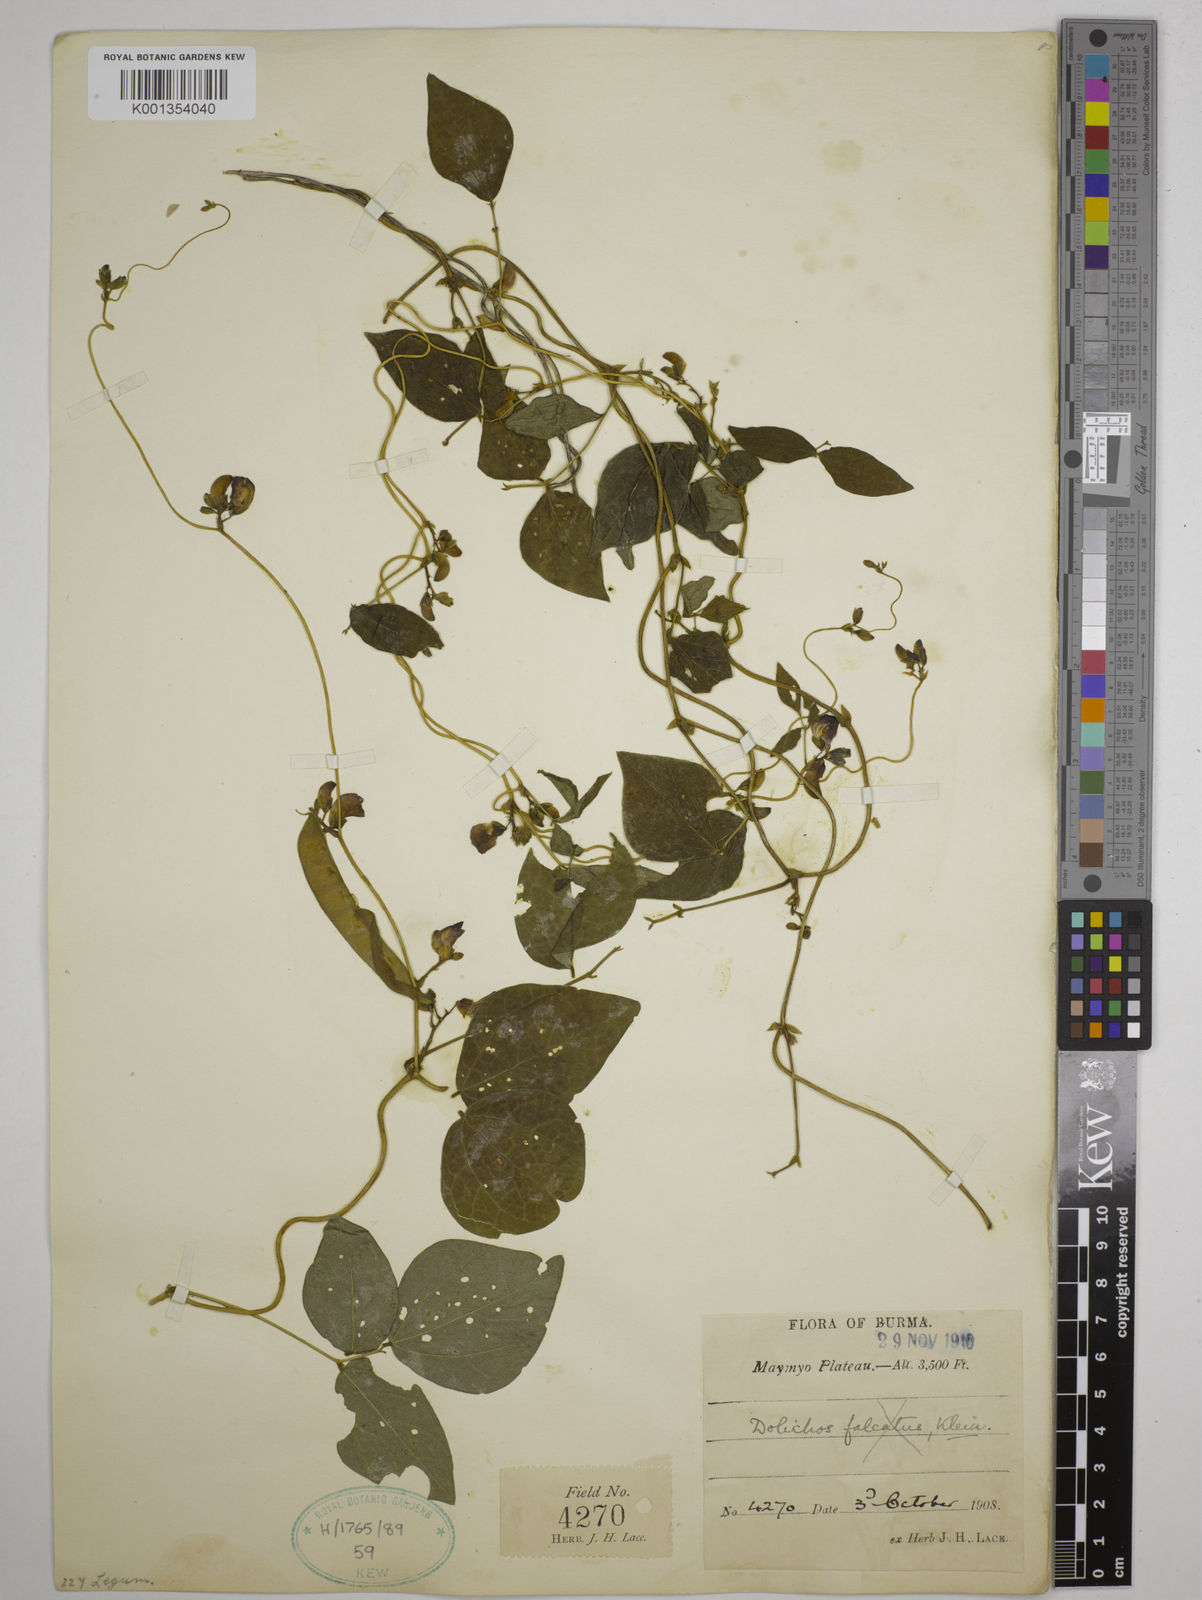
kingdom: Plantae
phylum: Tracheophyta
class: Magnoliopsida
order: Fabales
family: Fabaceae
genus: Dolichos
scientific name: Dolichos tenuicaulis
